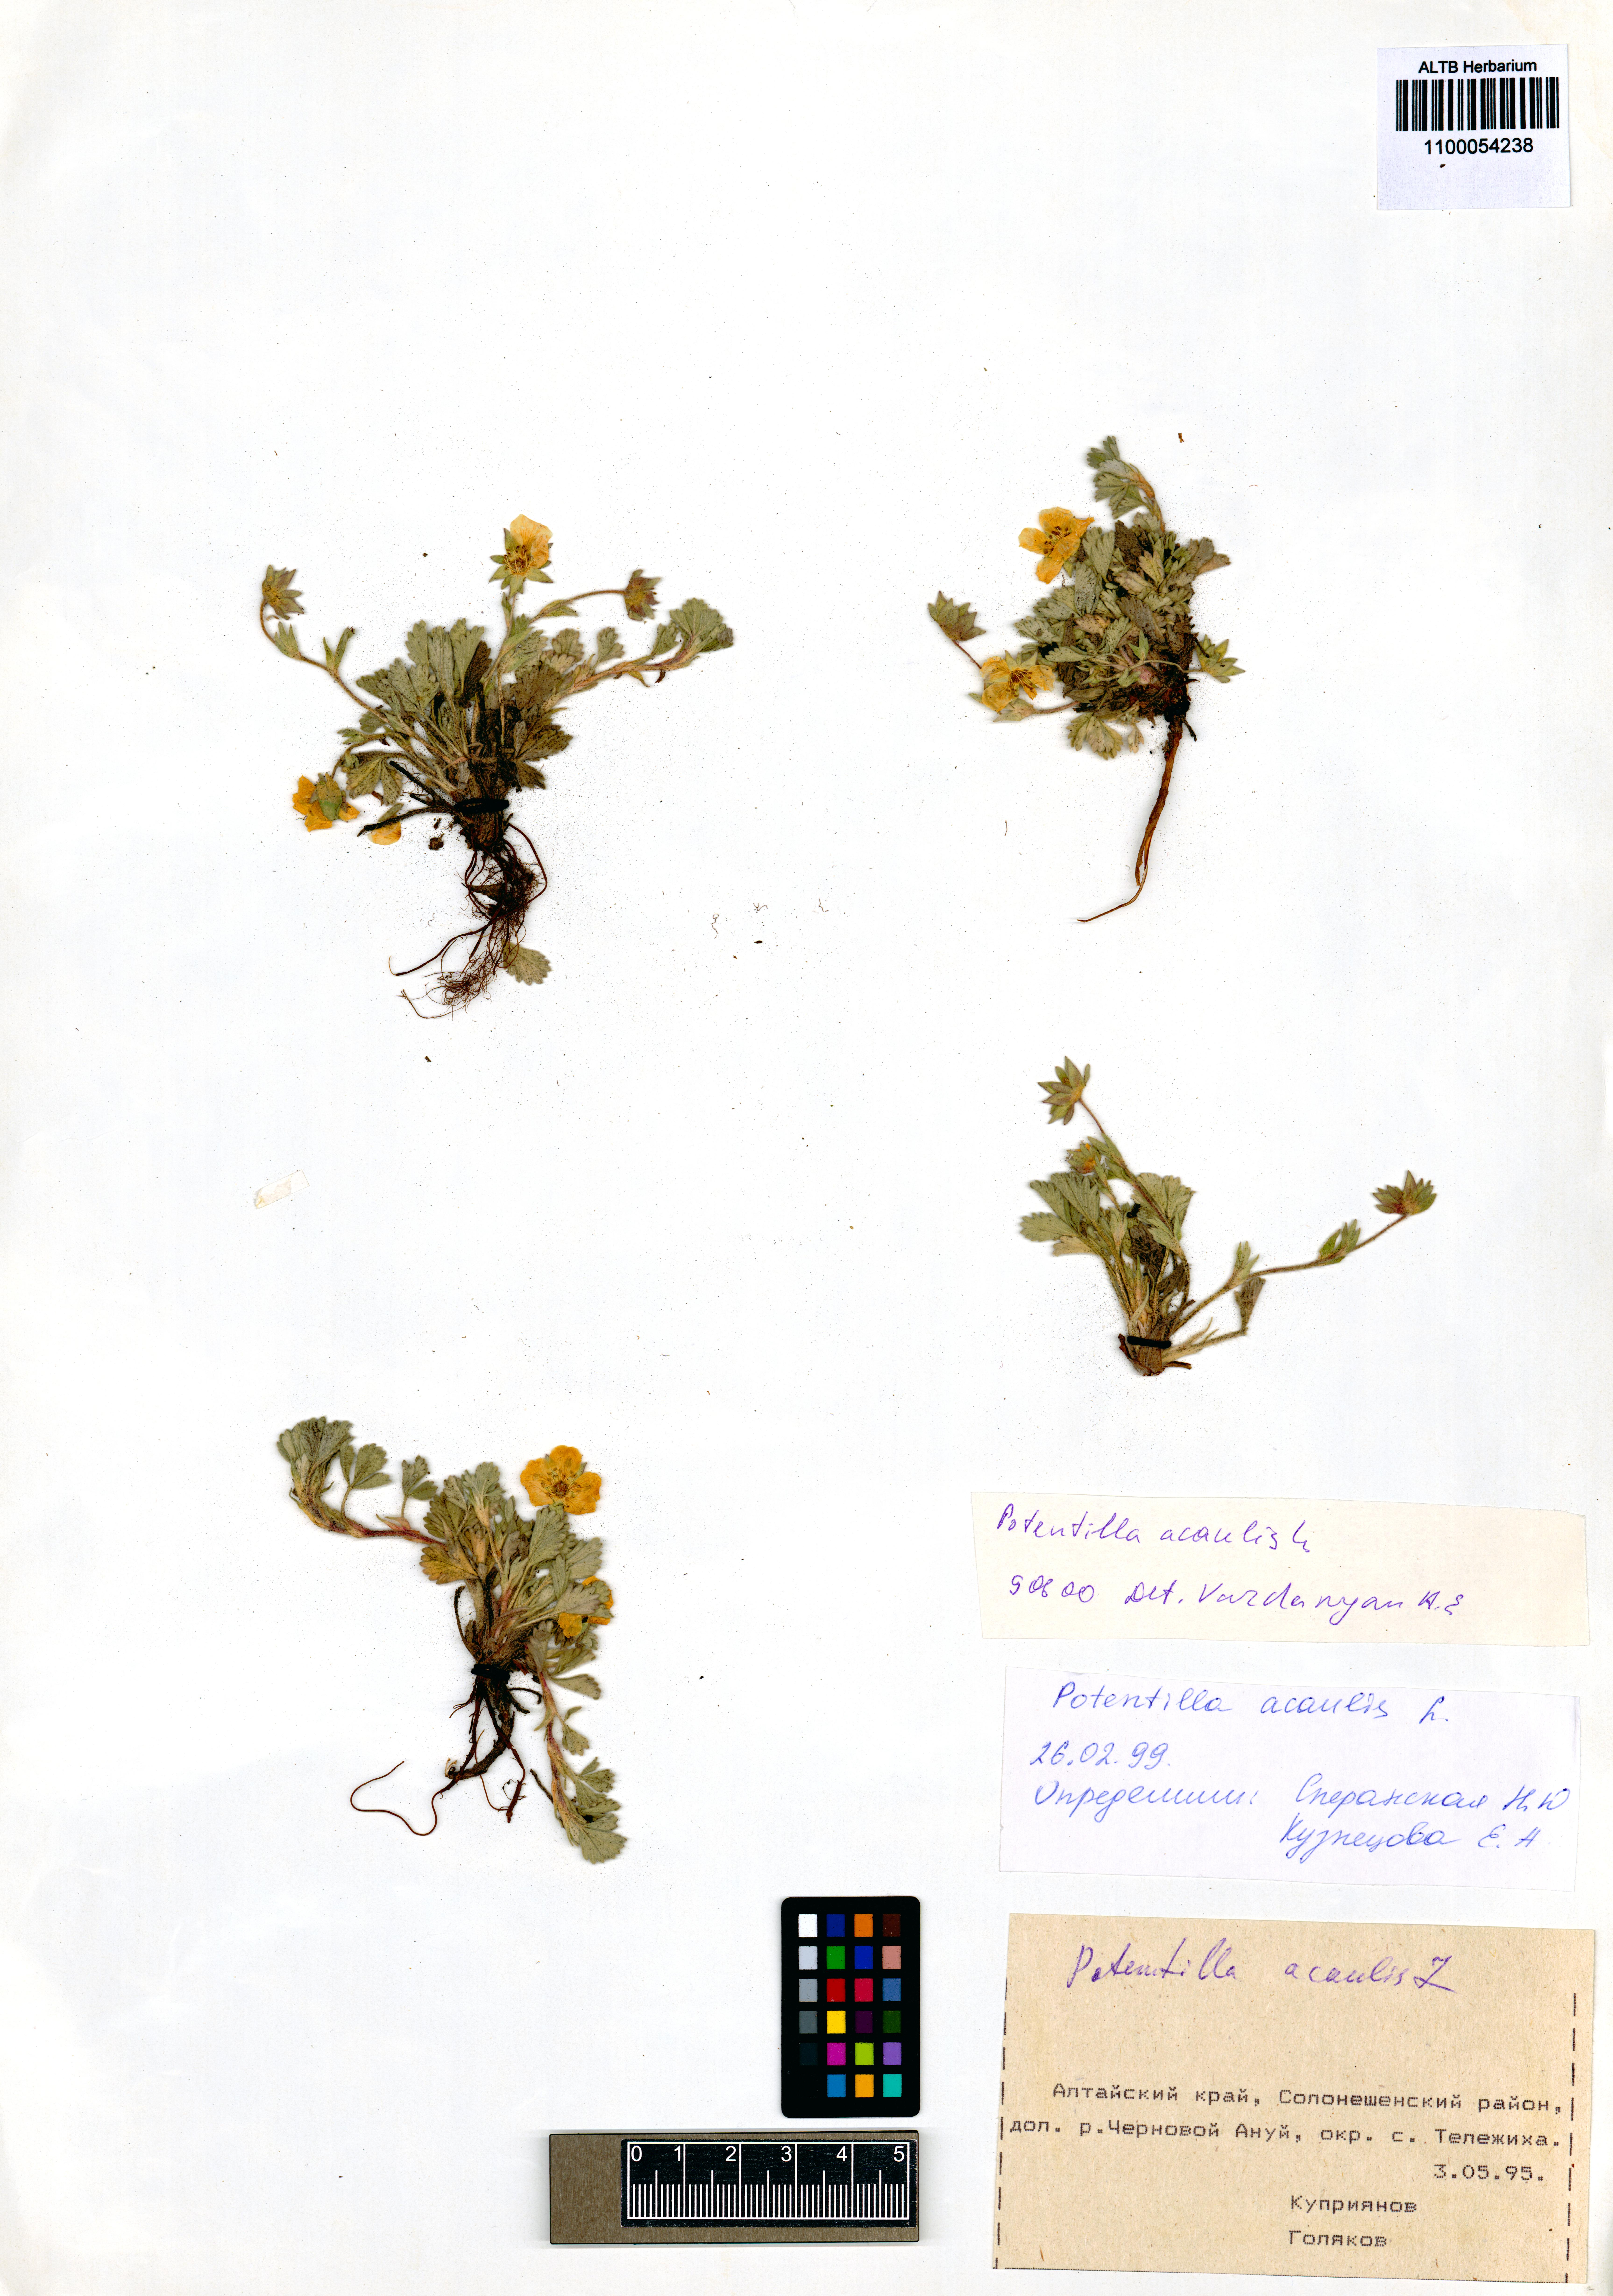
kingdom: Plantae
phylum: Tracheophyta
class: Magnoliopsida
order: Rosales
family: Rosaceae
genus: Potentilla
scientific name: Potentilla acaulis
